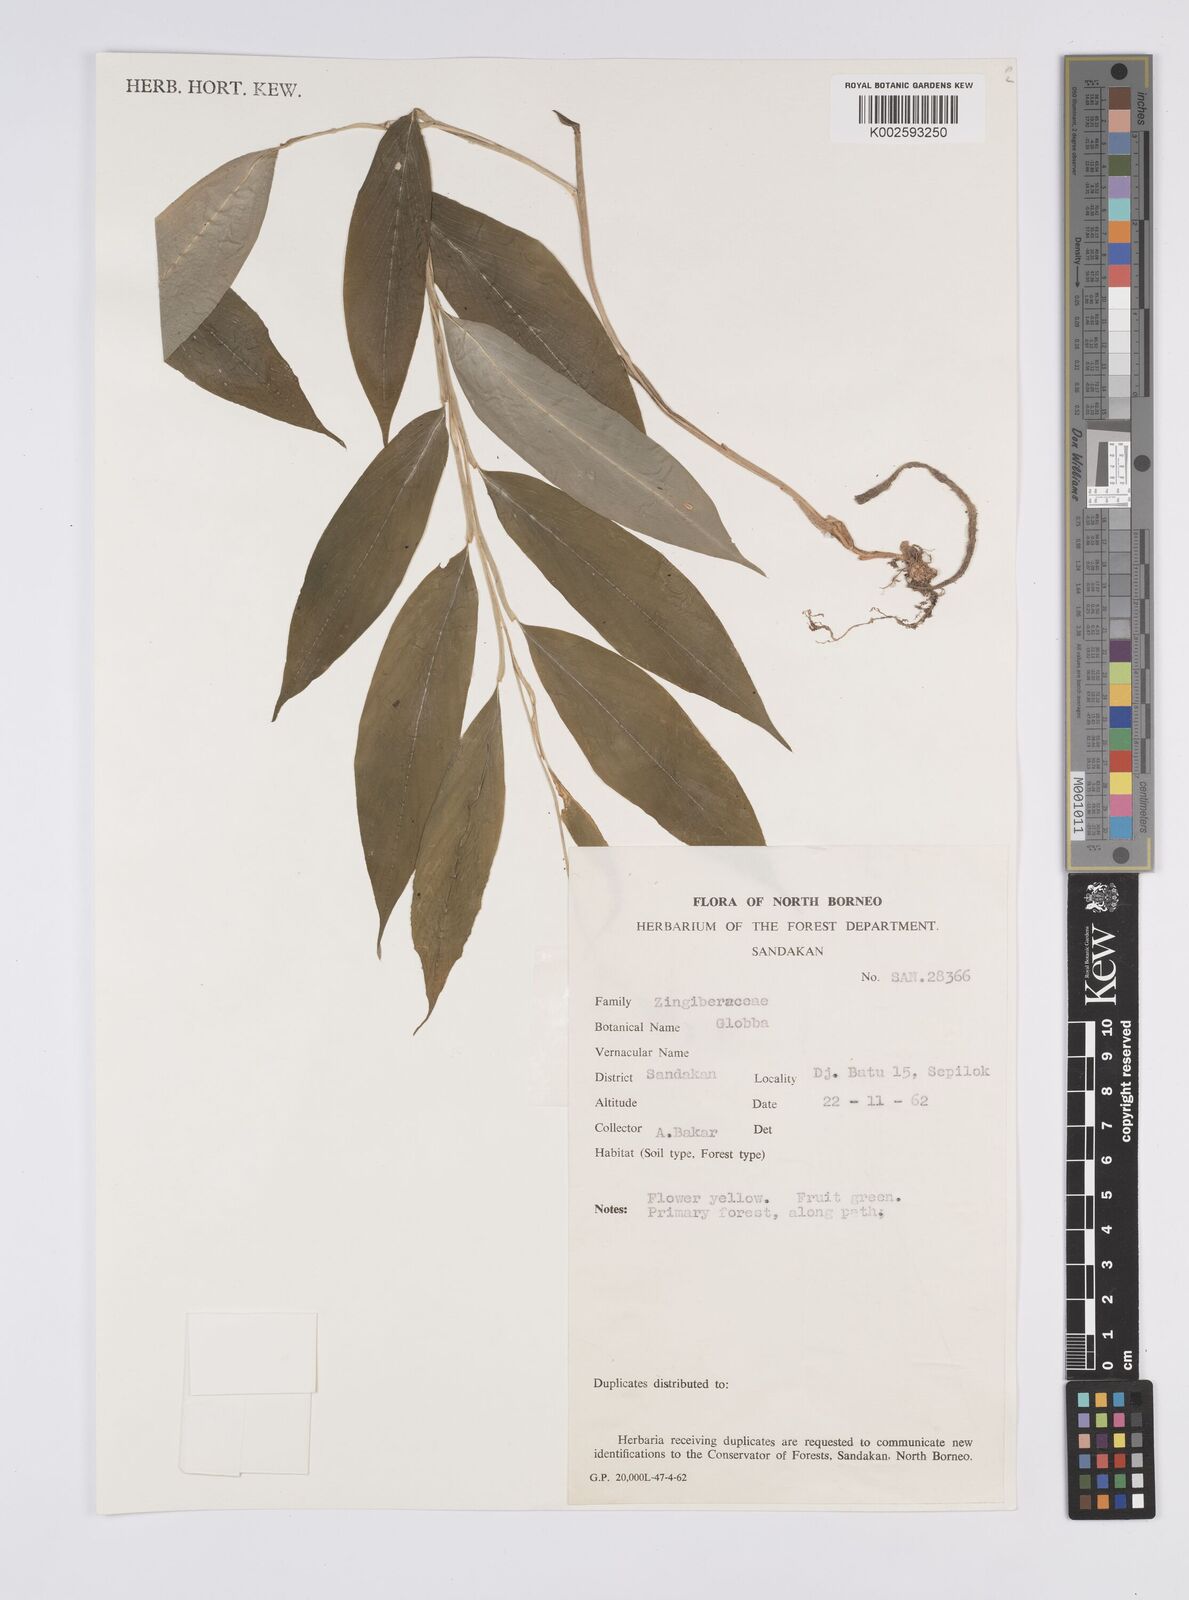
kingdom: Plantae
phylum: Tracheophyta
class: Liliopsida
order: Zingiberales
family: Zingiberaceae
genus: Globba
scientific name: Globba
